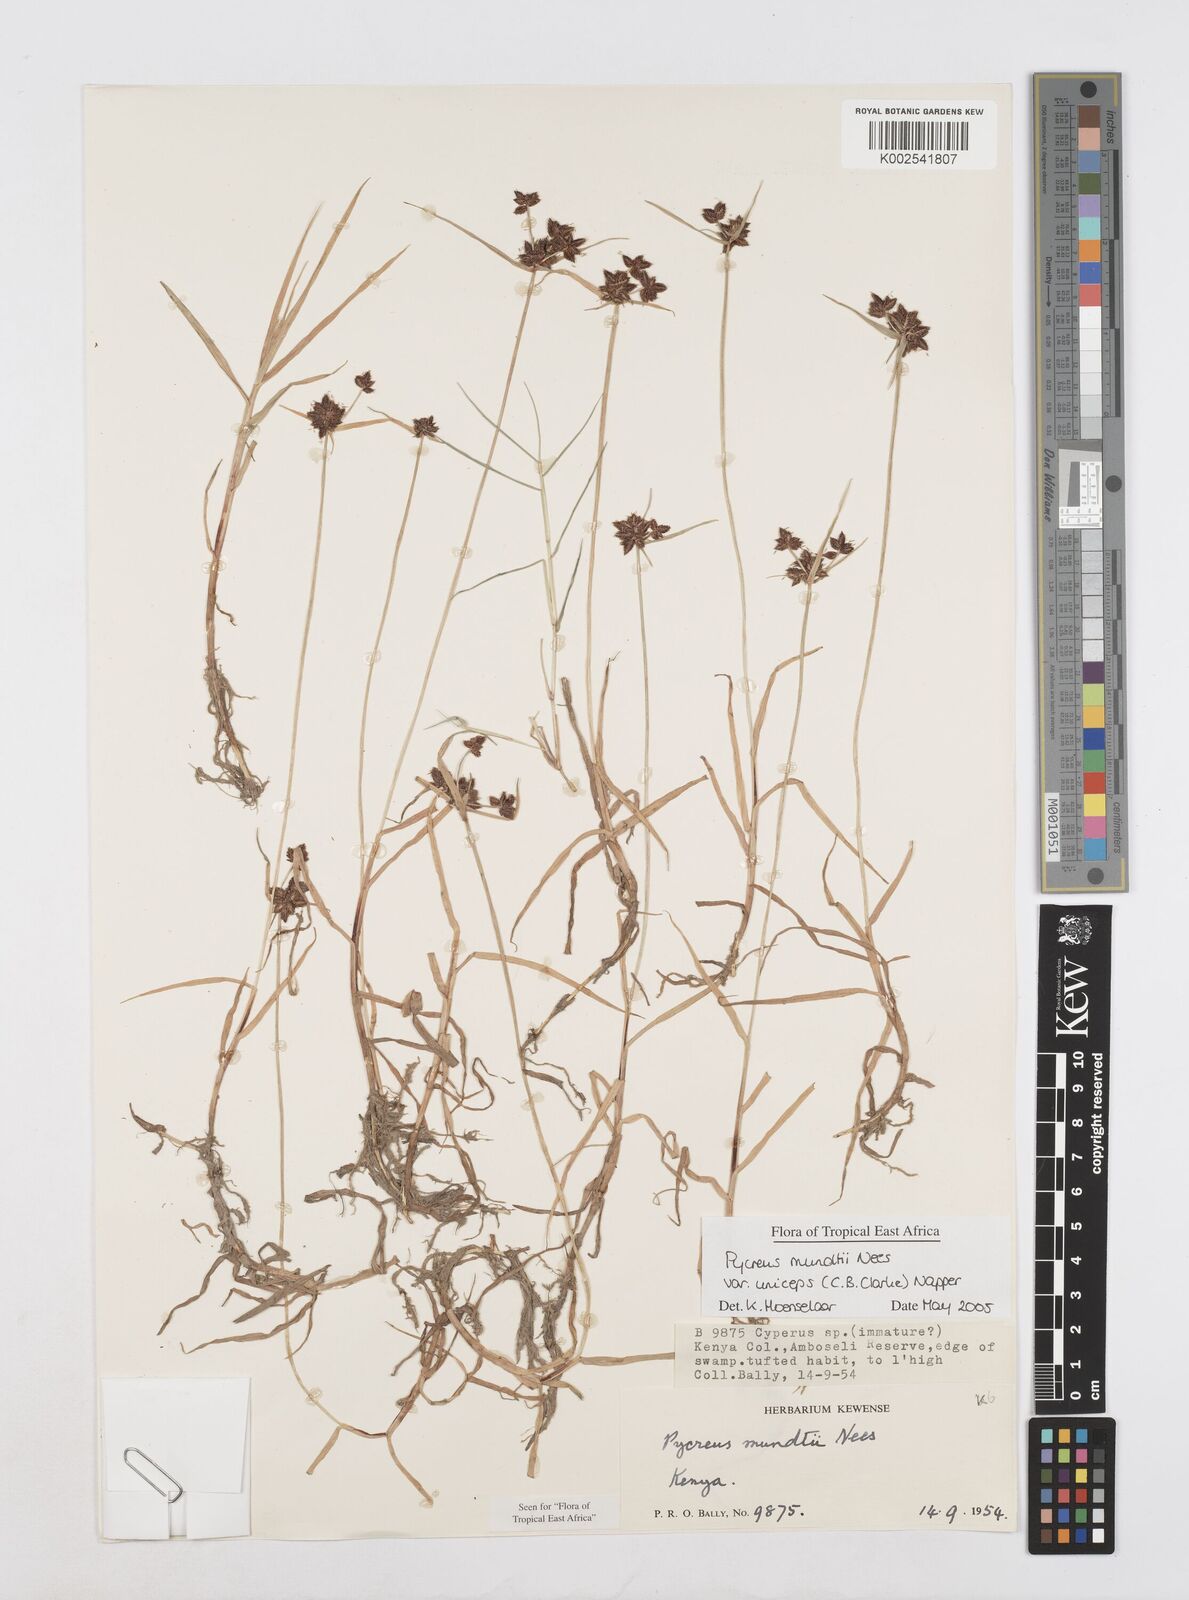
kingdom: Plantae
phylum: Tracheophyta
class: Liliopsida
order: Poales
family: Cyperaceae
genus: Cyperus
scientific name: Cyperus mundii
